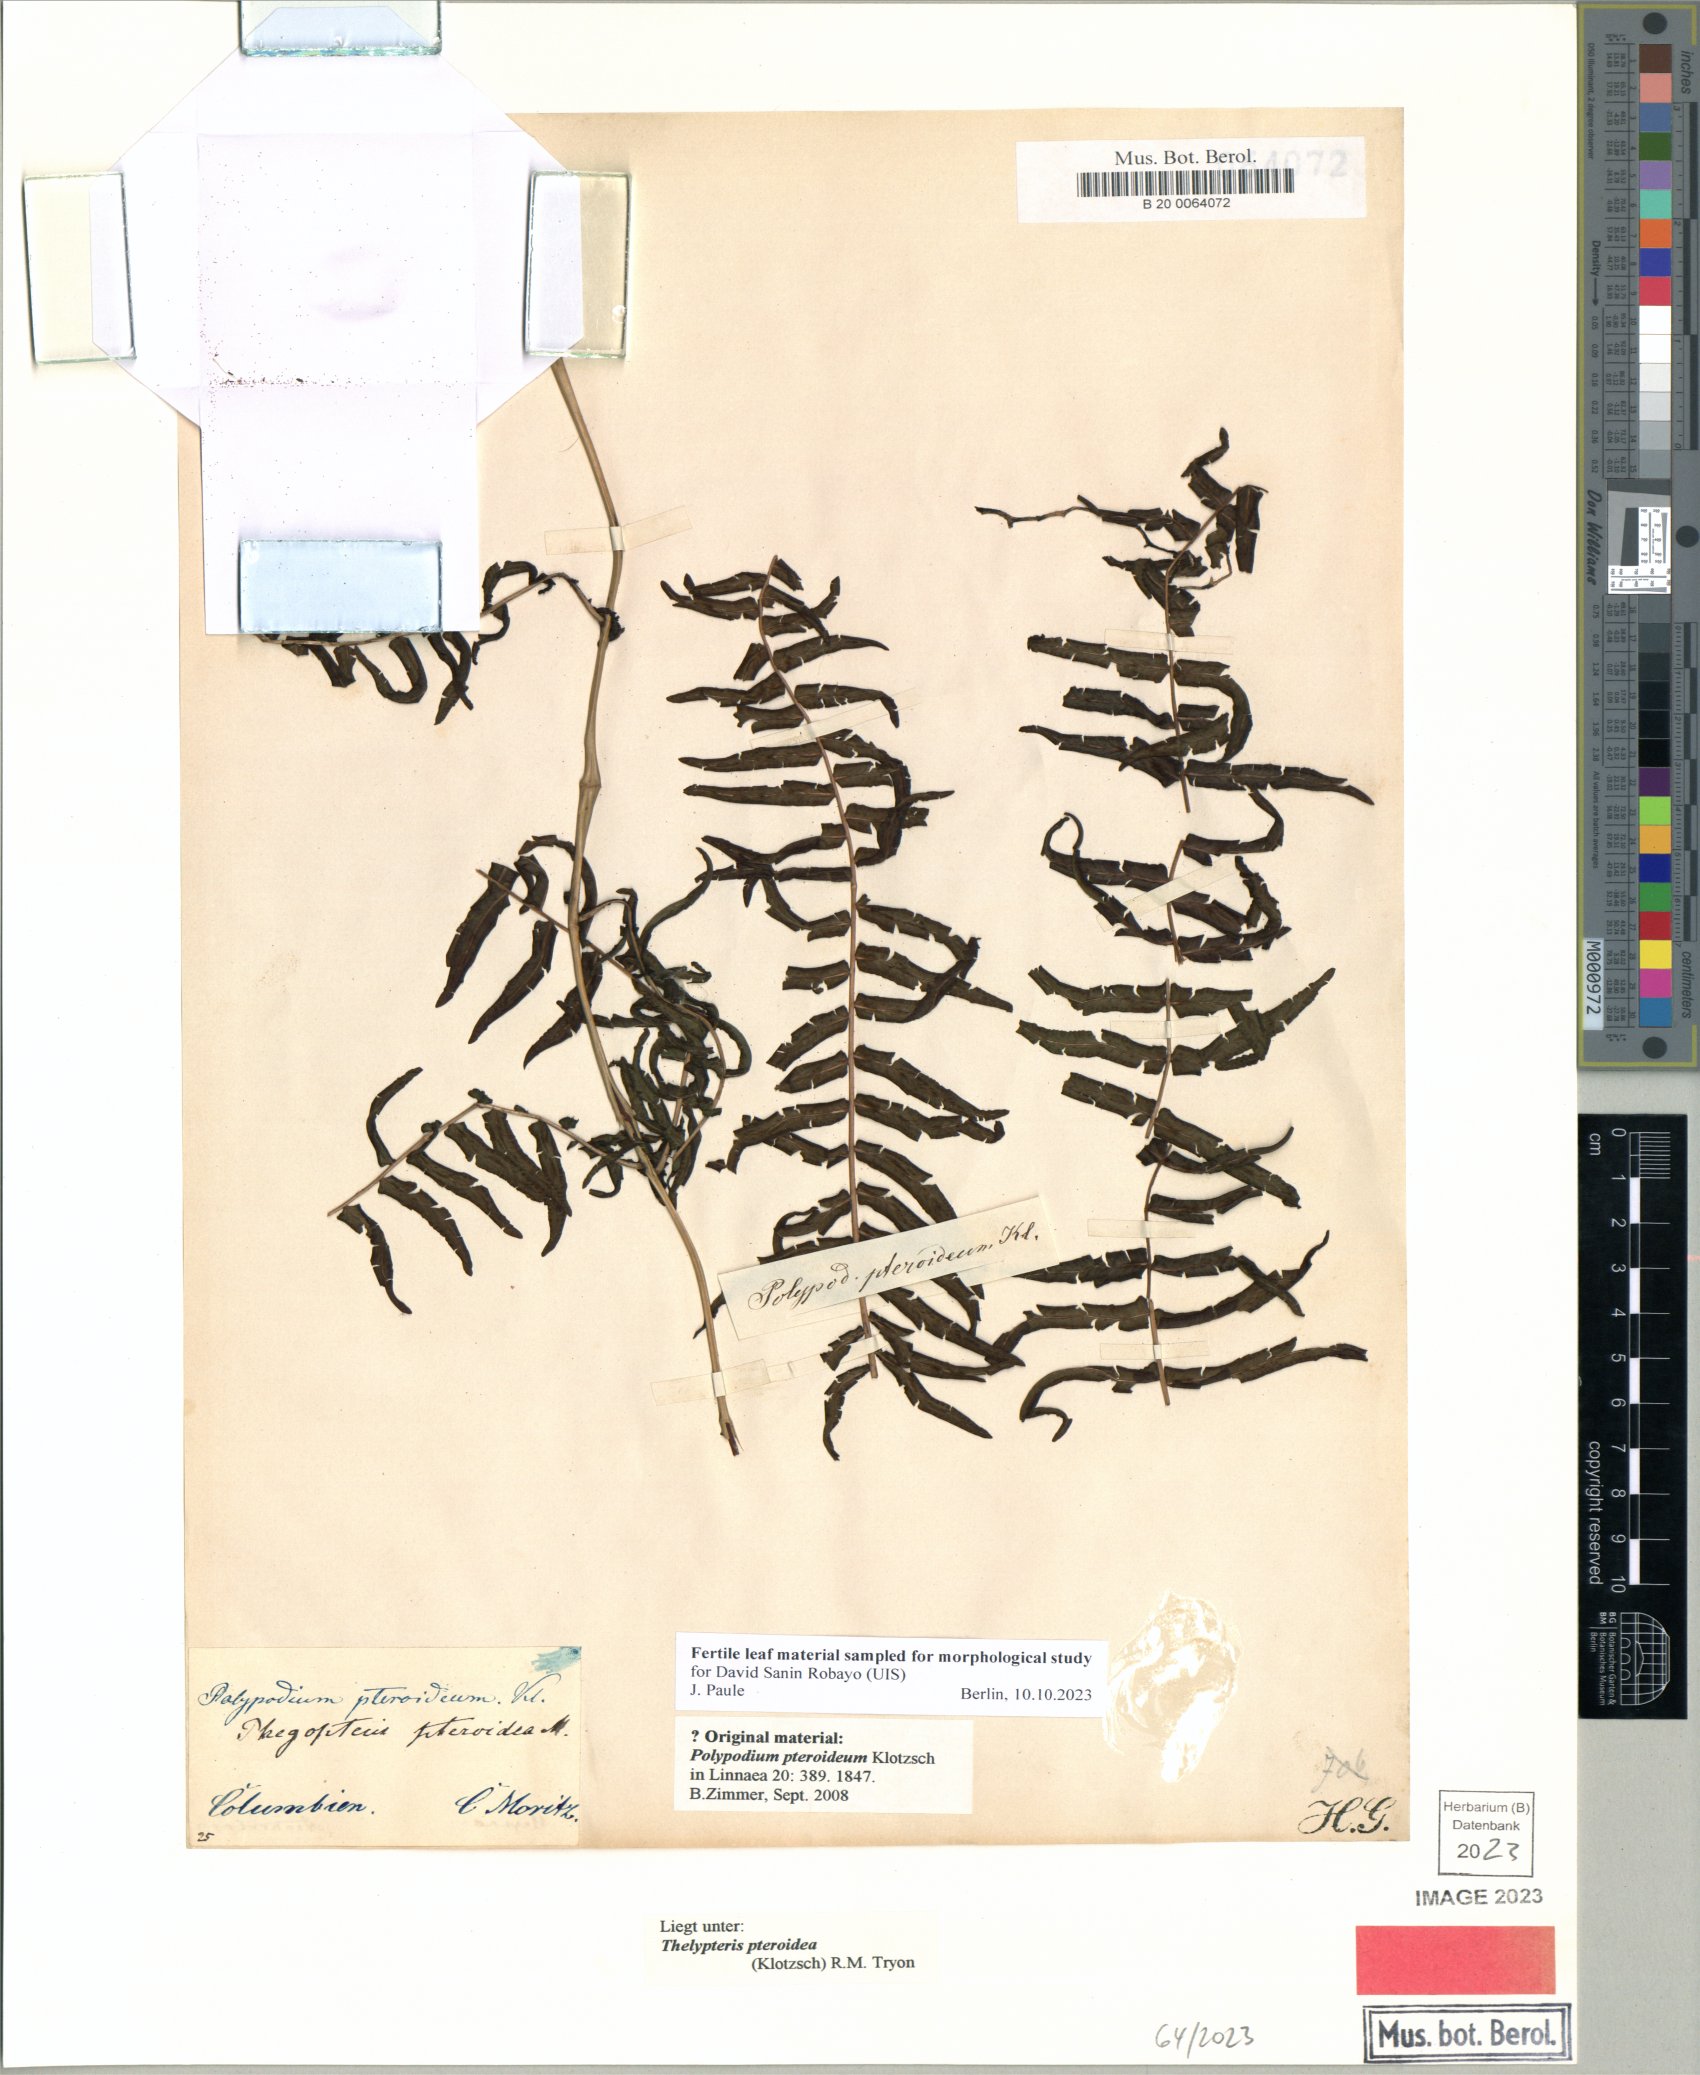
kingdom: Plantae
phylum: Tracheophyta
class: Polypodiopsida
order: Polypodiales
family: Thelypteridaceae
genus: Amauropelta
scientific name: Amauropelta pteroidea
